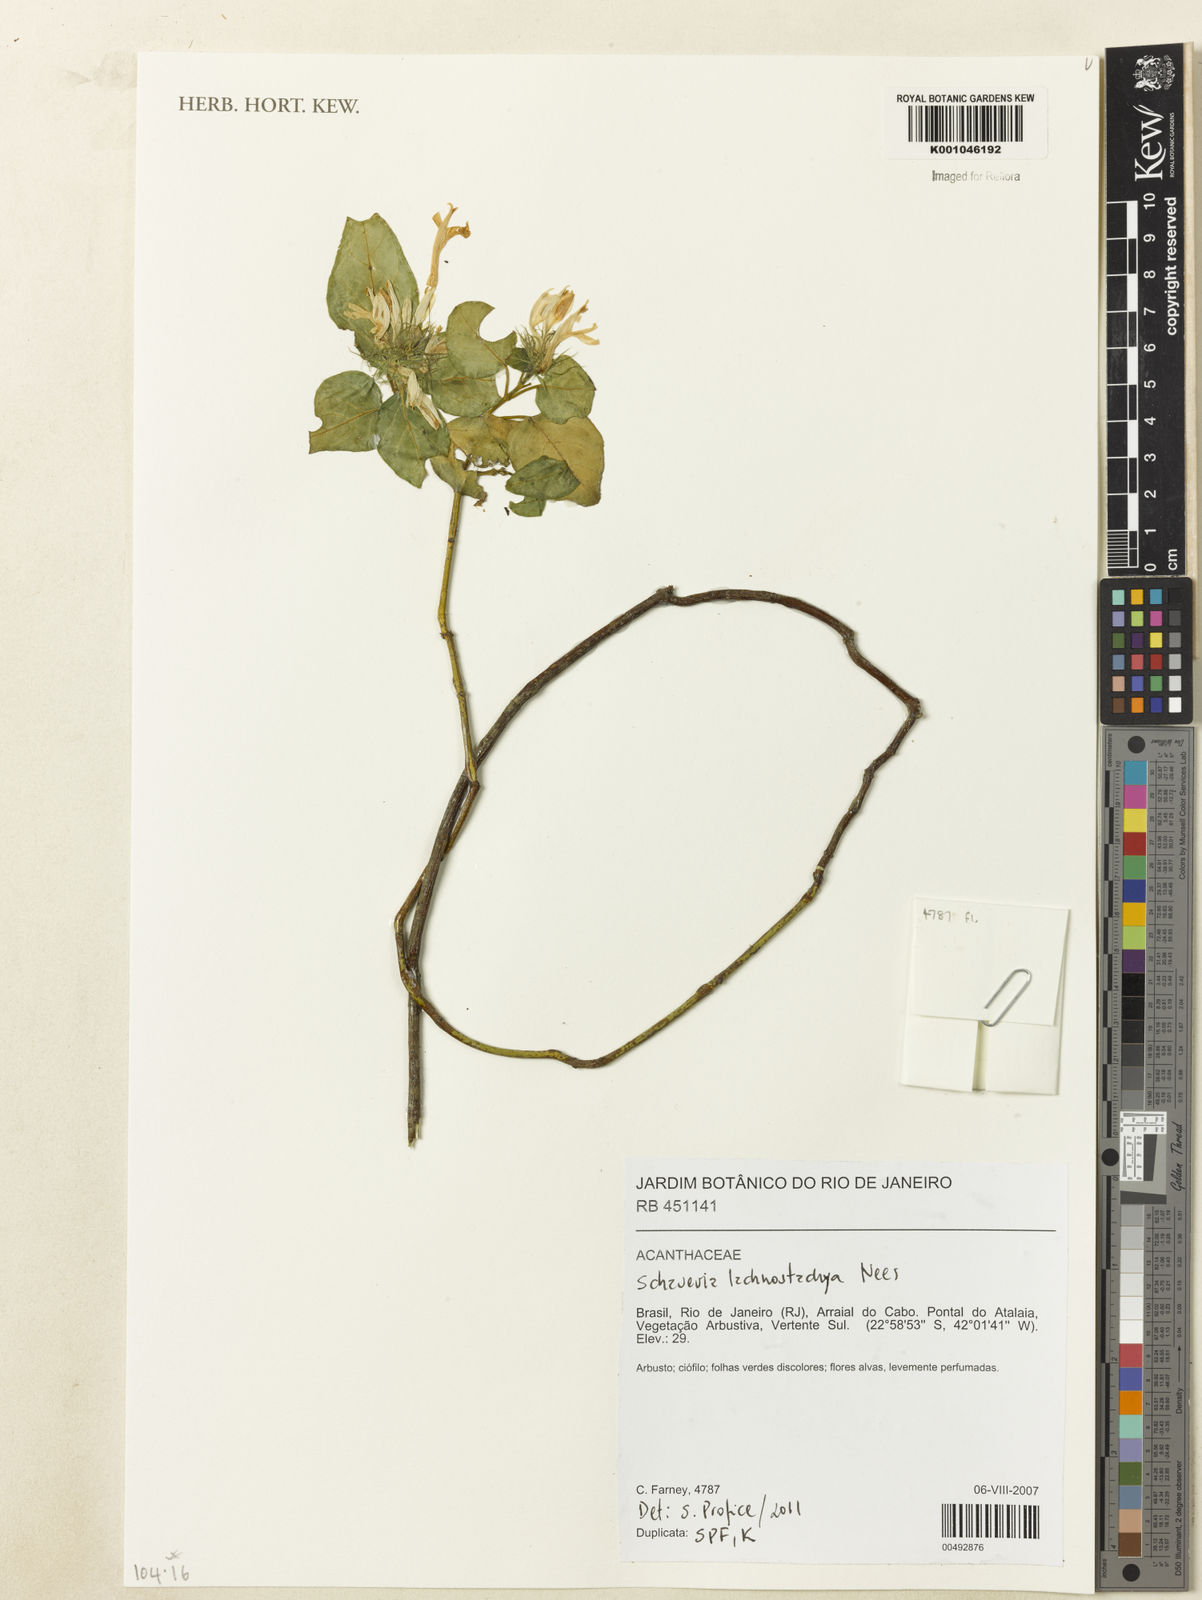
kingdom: Plantae
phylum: Tracheophyta
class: Magnoliopsida
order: Lamiales
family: Acanthaceae
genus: Schaueria
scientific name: Schaueria lachnostachya
